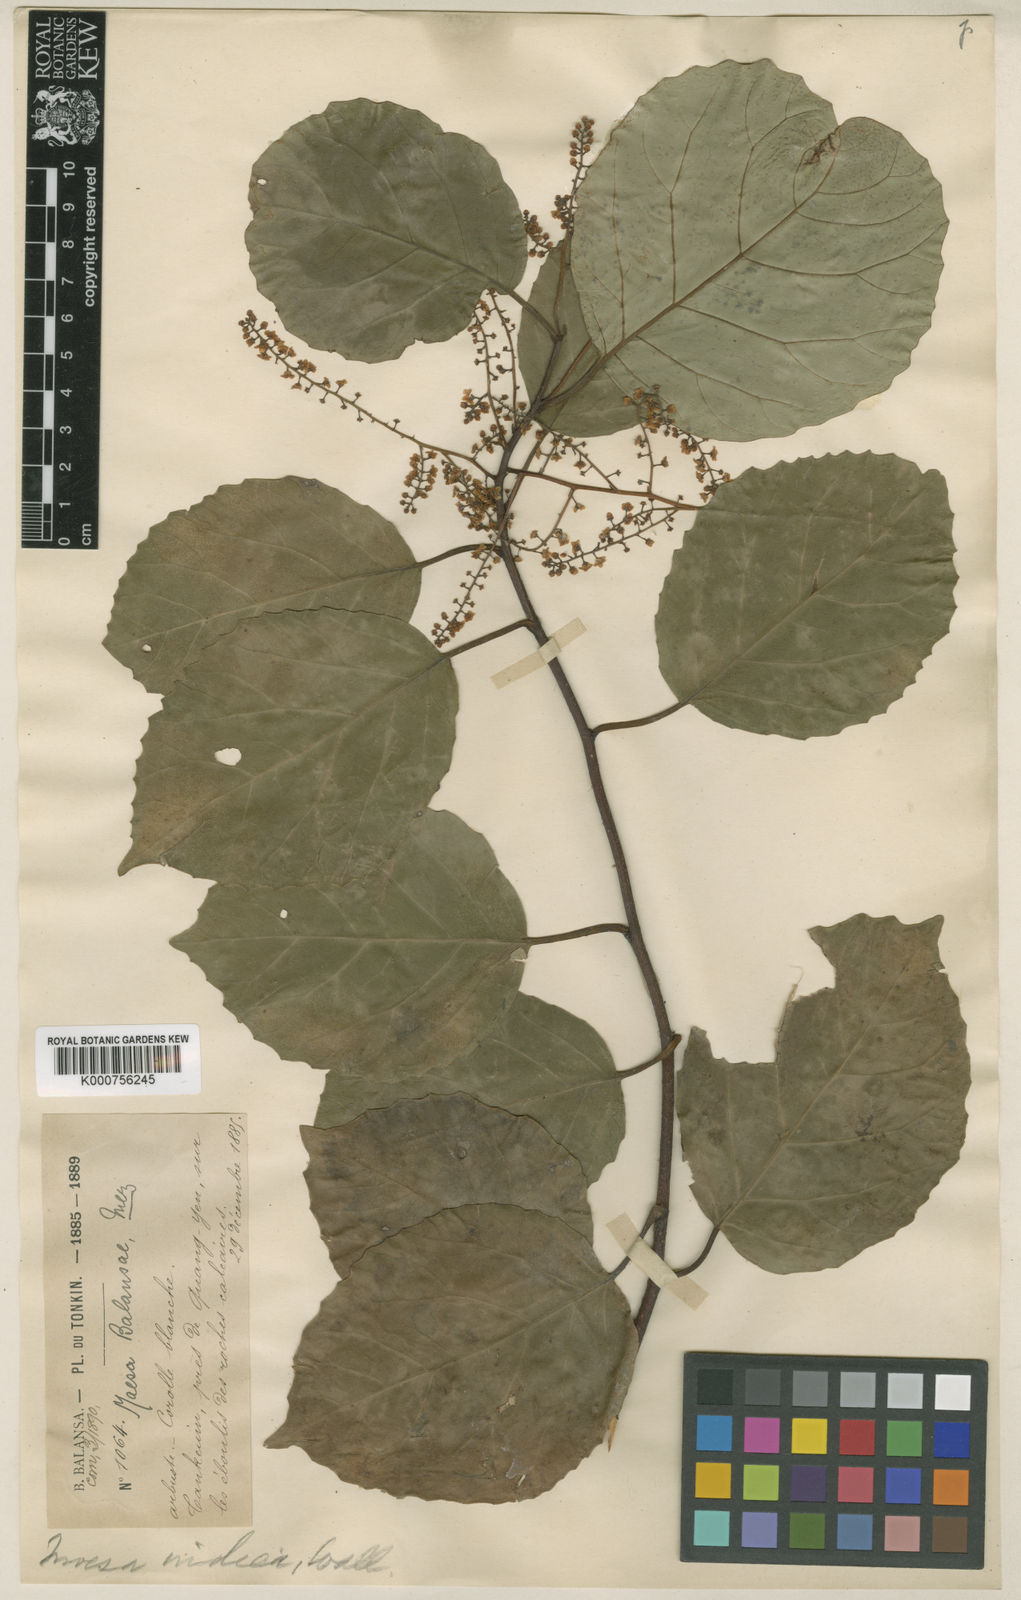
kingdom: Plantae
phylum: Tracheophyta
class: Magnoliopsida
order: Ericales
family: Primulaceae
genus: Maesa
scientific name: Maesa balansae
